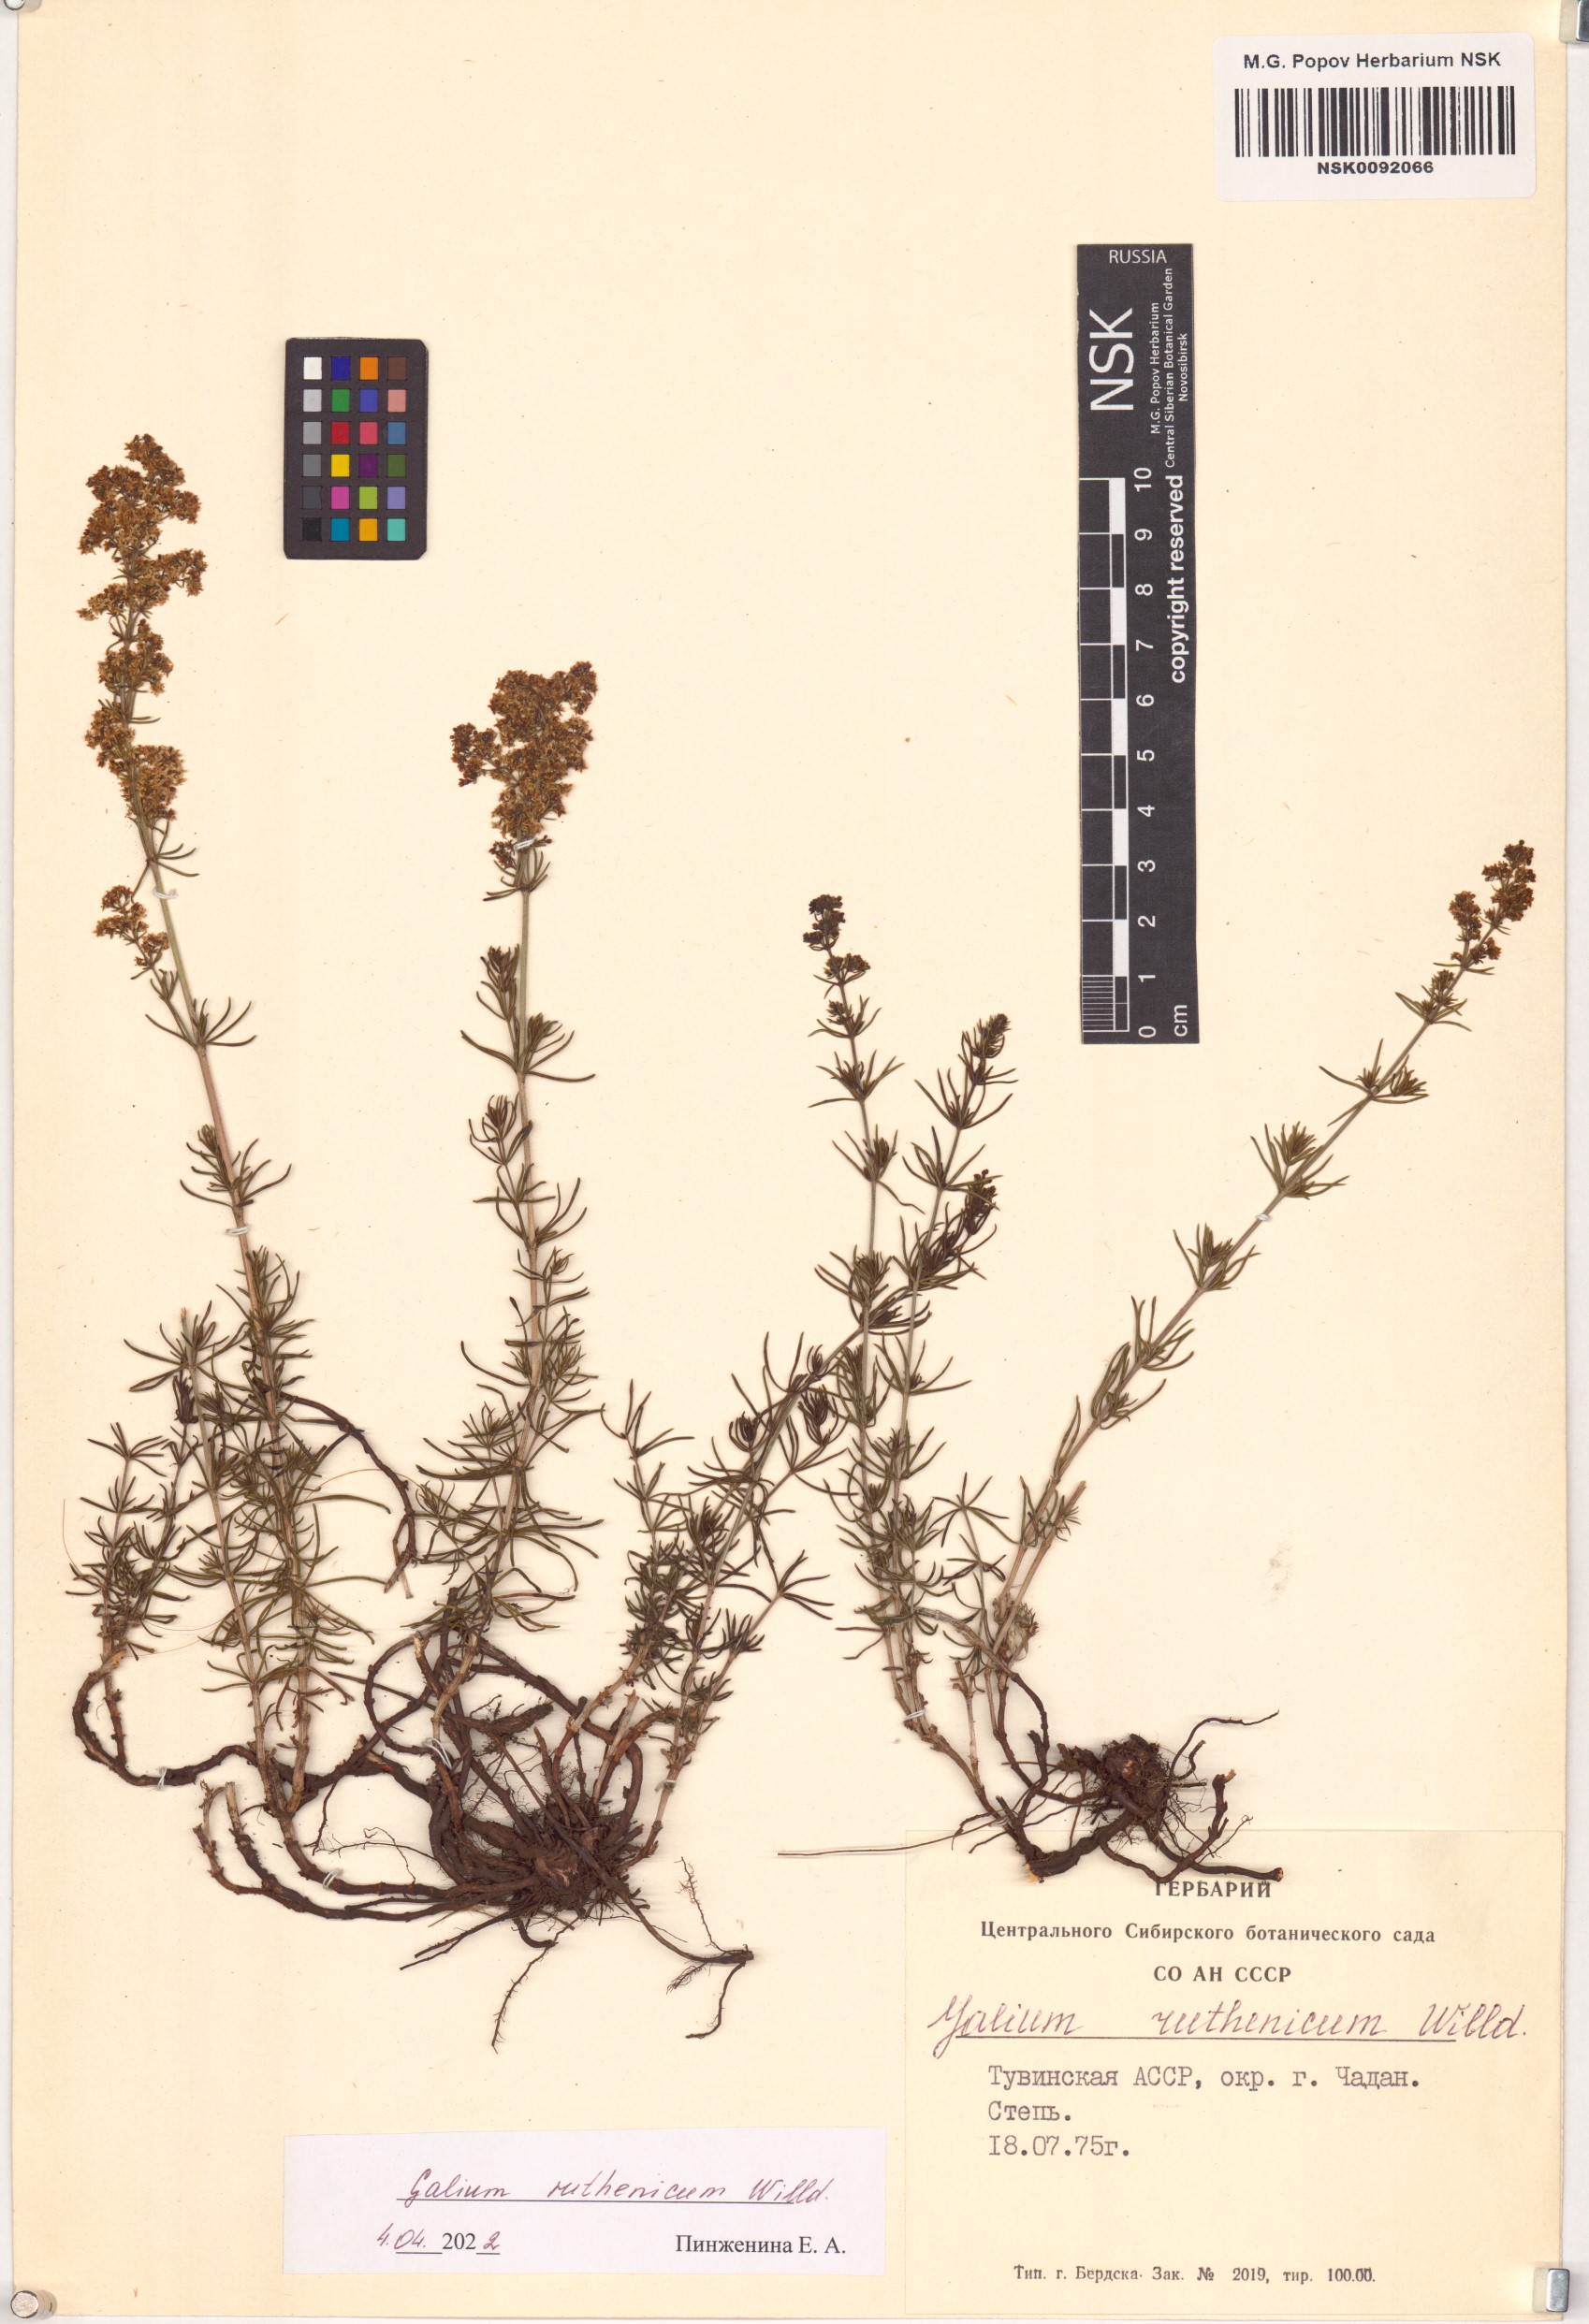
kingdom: Plantae
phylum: Tracheophyta
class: Magnoliopsida
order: Gentianales
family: Rubiaceae
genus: Galium
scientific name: Galium verum
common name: Lady's bedstraw
